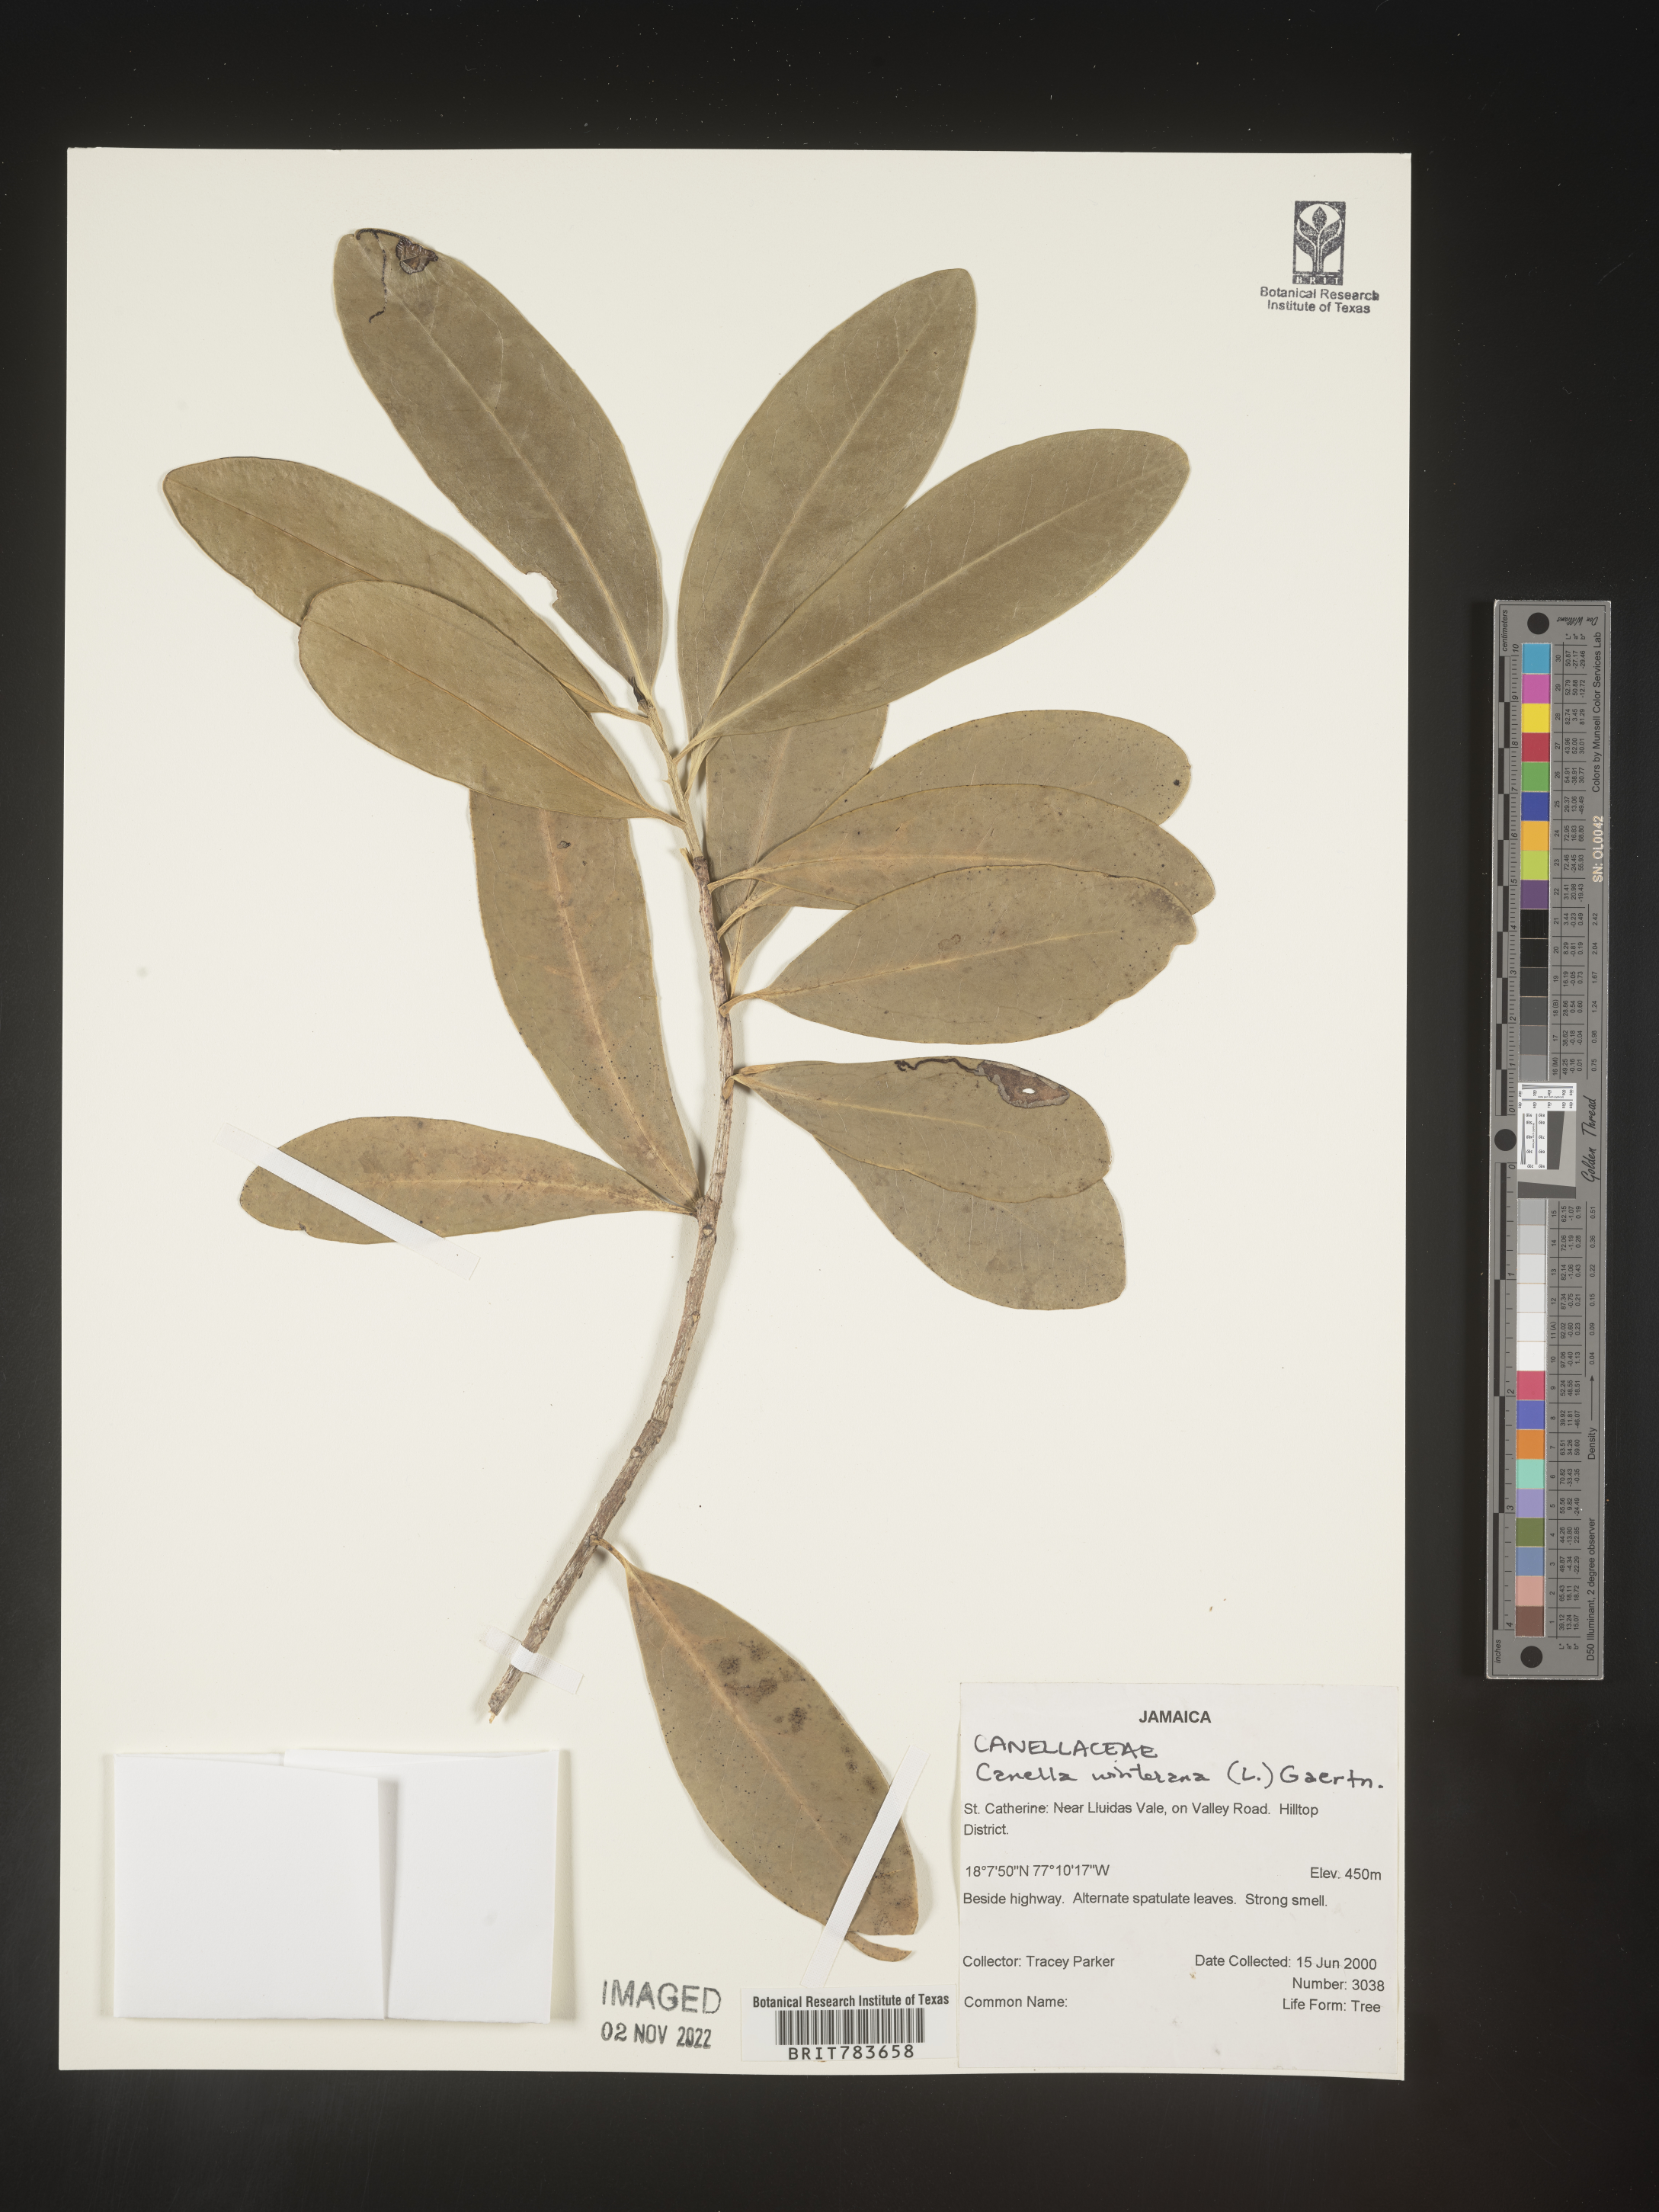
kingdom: Plantae
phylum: Tracheophyta
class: Magnoliopsida
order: Canellales
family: Canellaceae
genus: Canella
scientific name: Canella
